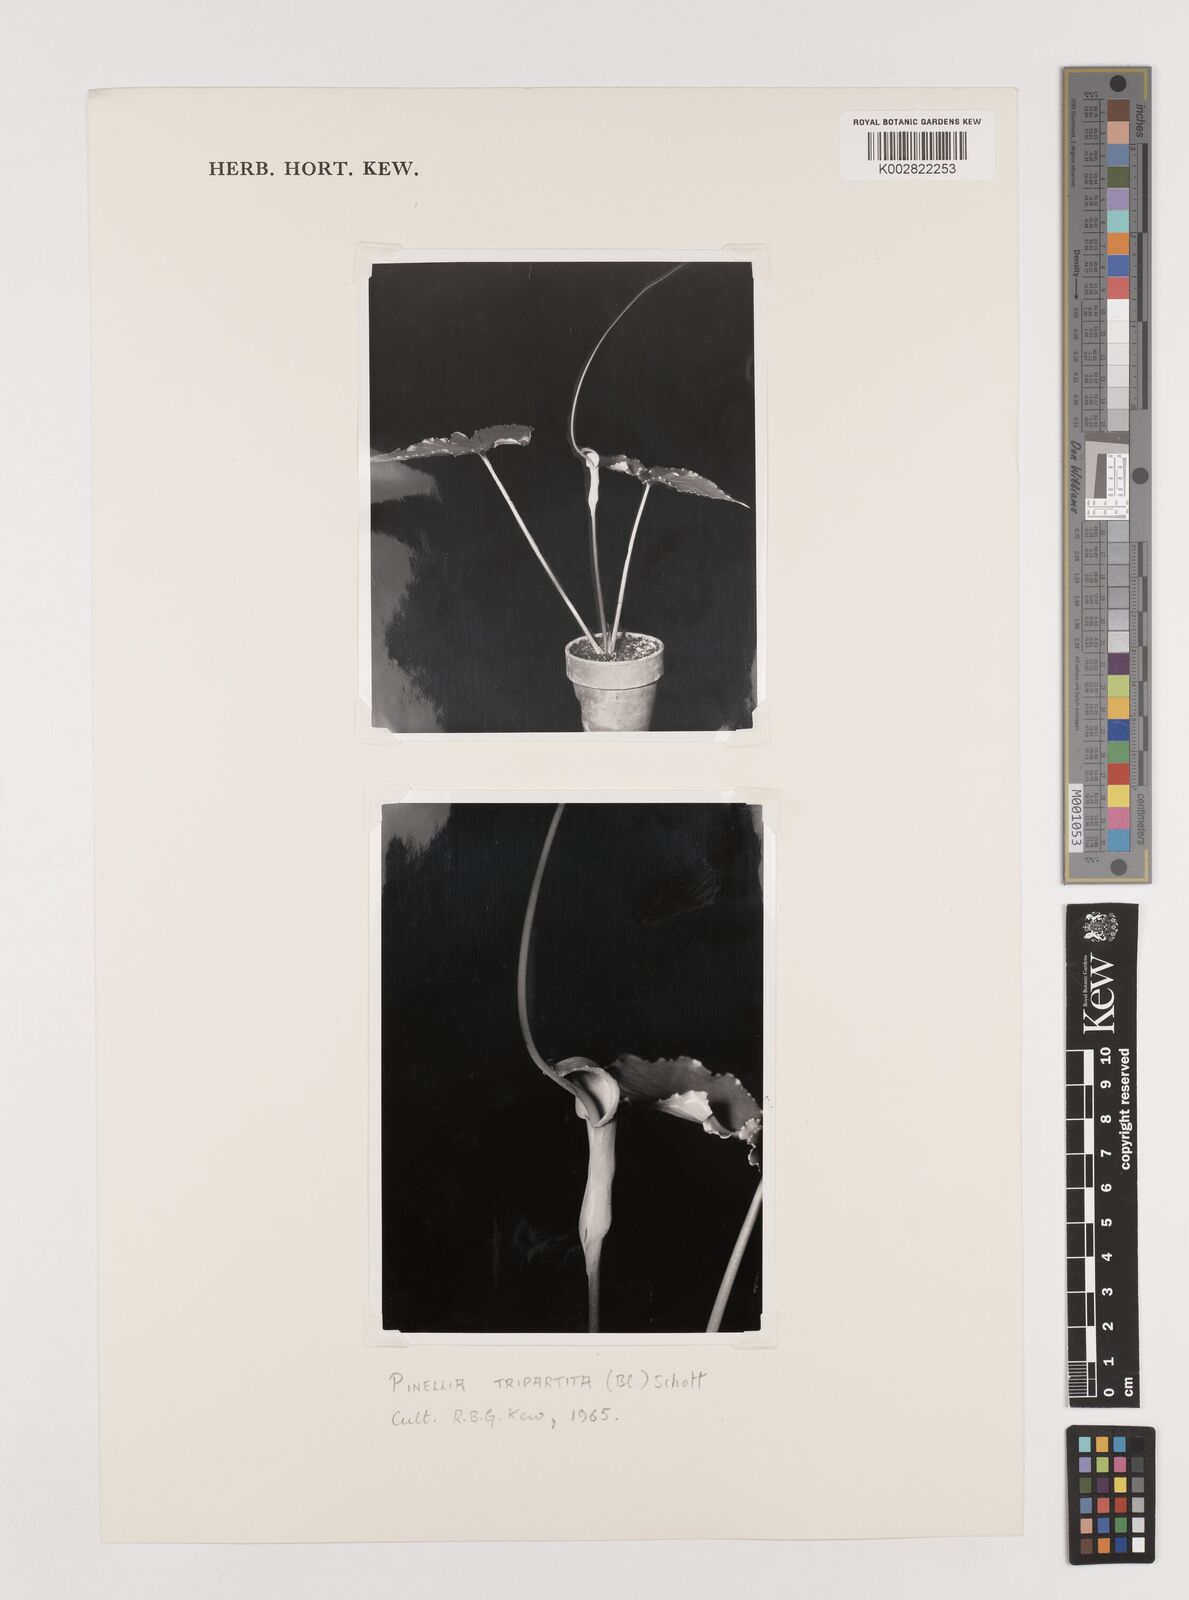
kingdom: Plantae
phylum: Tracheophyta
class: Liliopsida
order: Alismatales
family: Araceae
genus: Pinellia
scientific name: Pinellia tripartita
